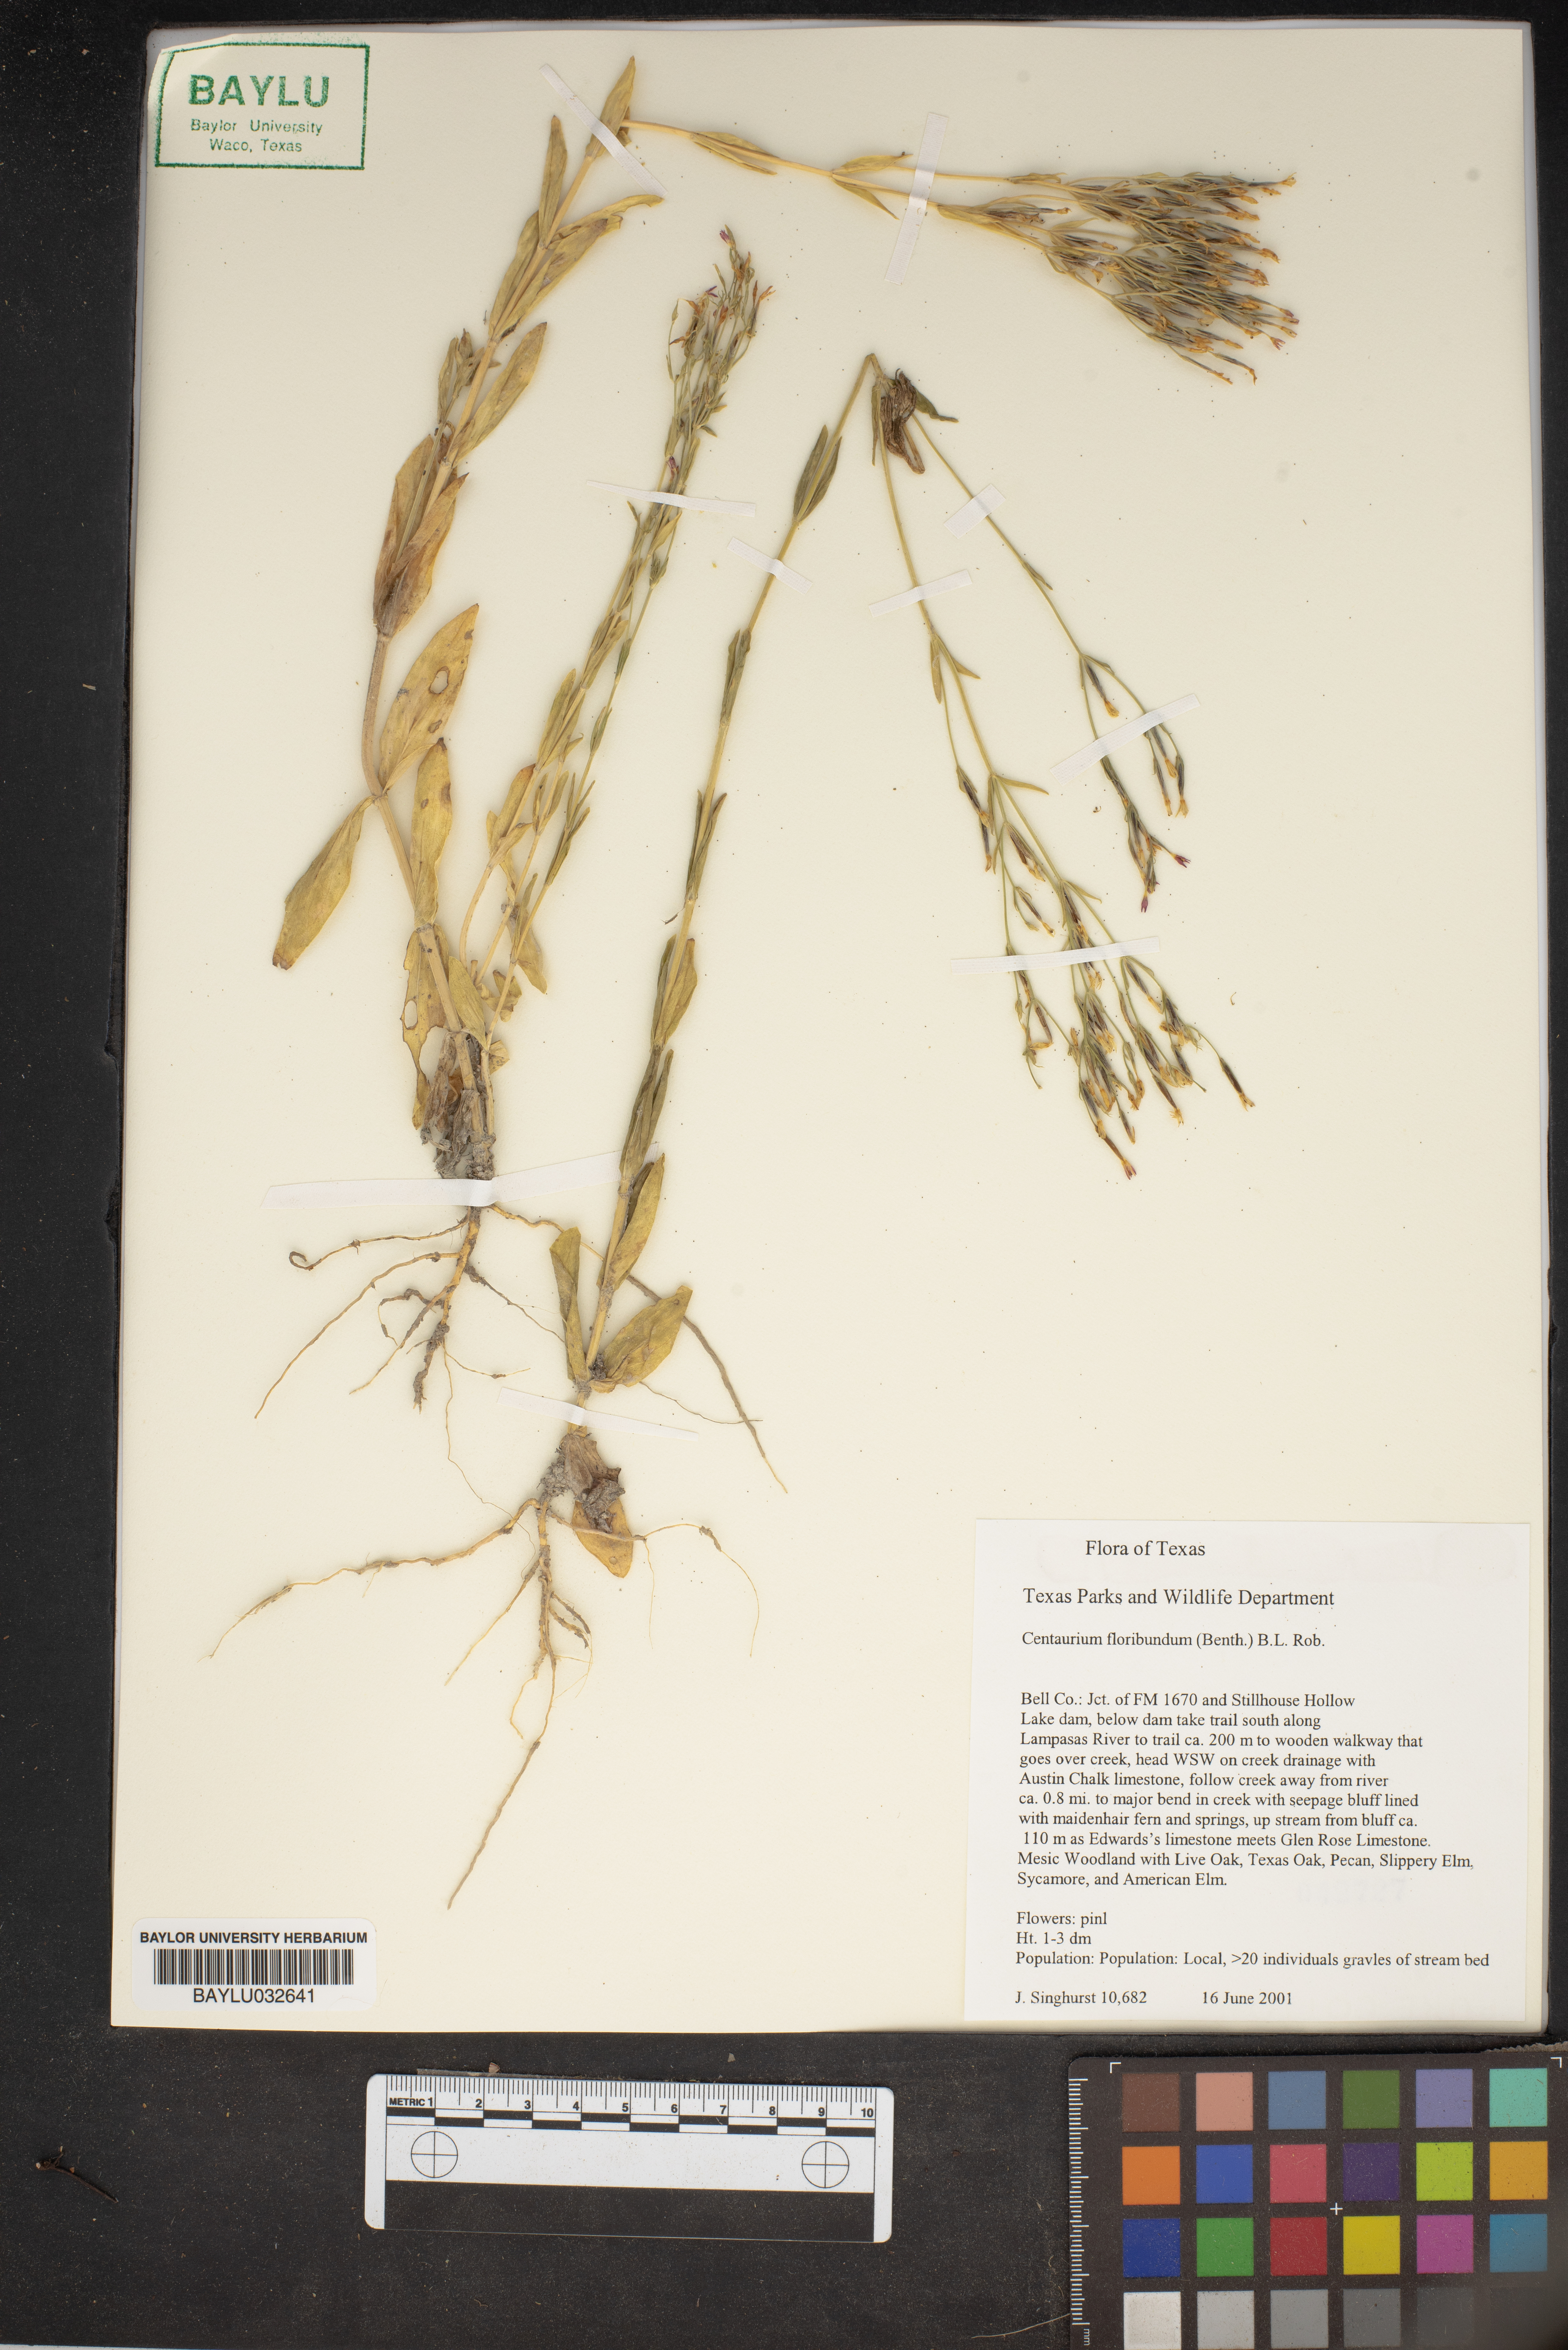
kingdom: Plantae
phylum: Tracheophyta
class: Magnoliopsida
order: Gentianales
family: Gentianaceae
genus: Zeltnera
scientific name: Zeltnera muhlenbergii
